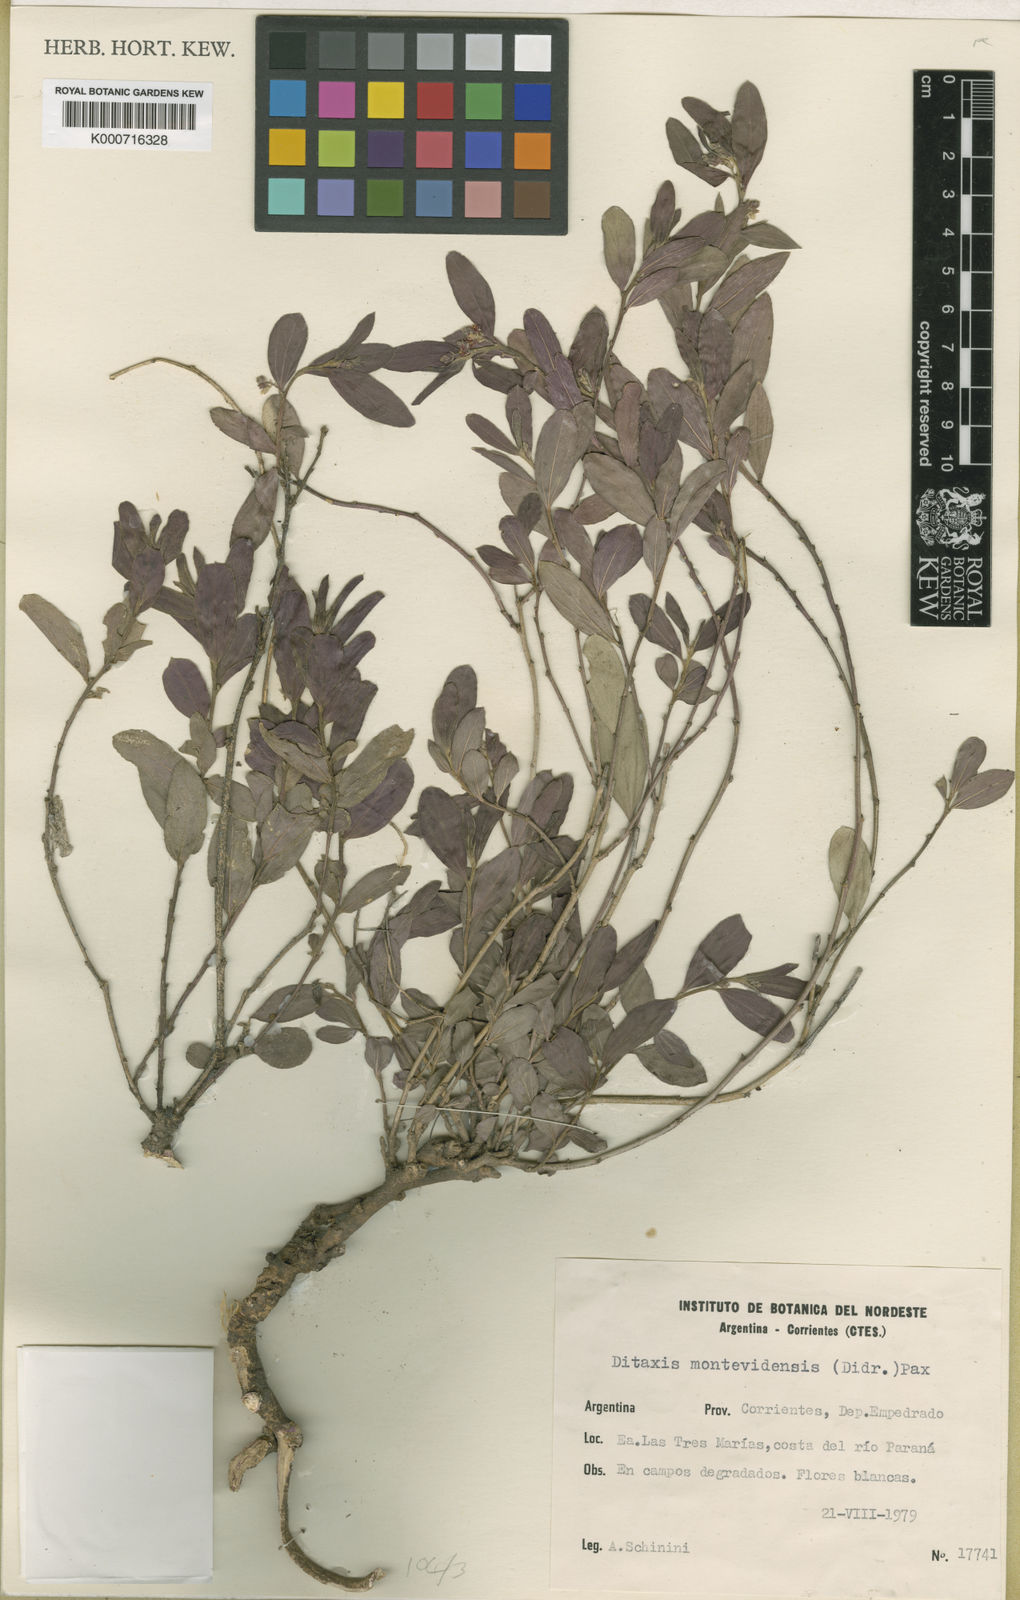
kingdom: Plantae
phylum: Tracheophyta
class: Magnoliopsida
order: Malpighiales
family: Euphorbiaceae
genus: Ditaxis
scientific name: Ditaxis montevidensis
